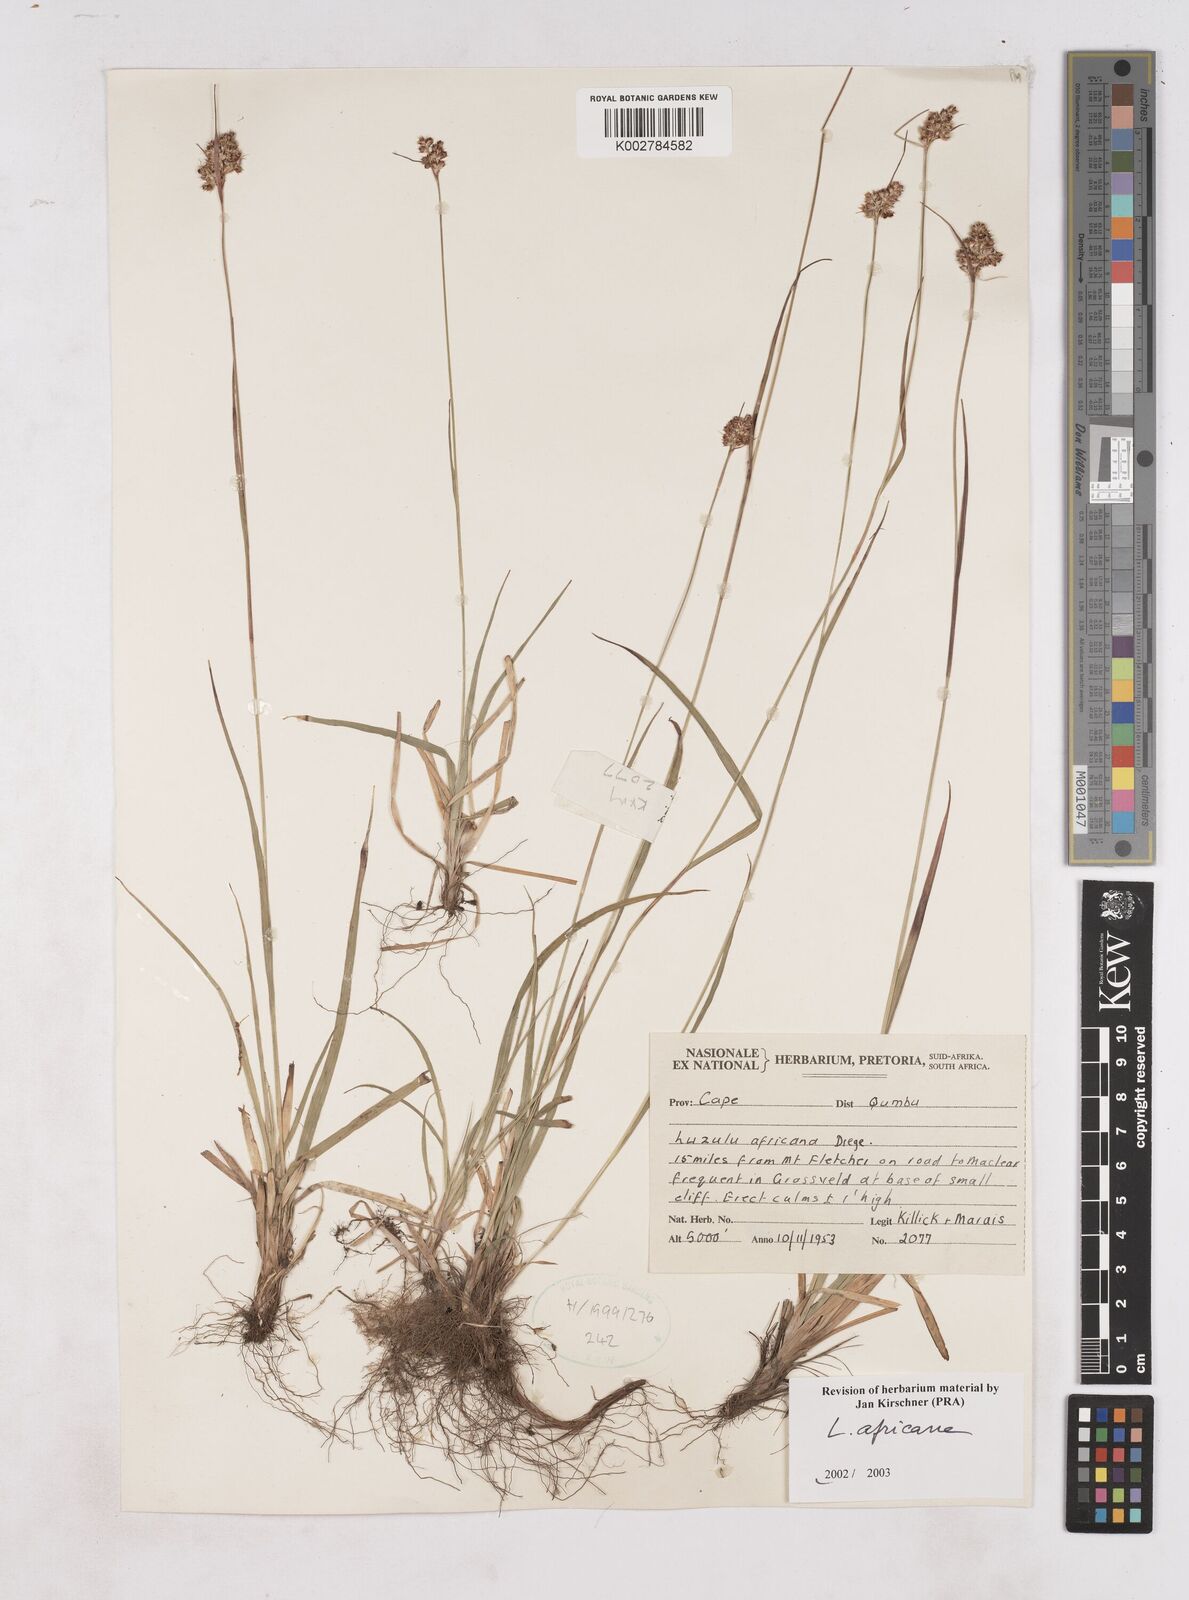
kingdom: Plantae
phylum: Tracheophyta
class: Liliopsida
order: Poales
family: Juncaceae
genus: Luzula
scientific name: Luzula africana
